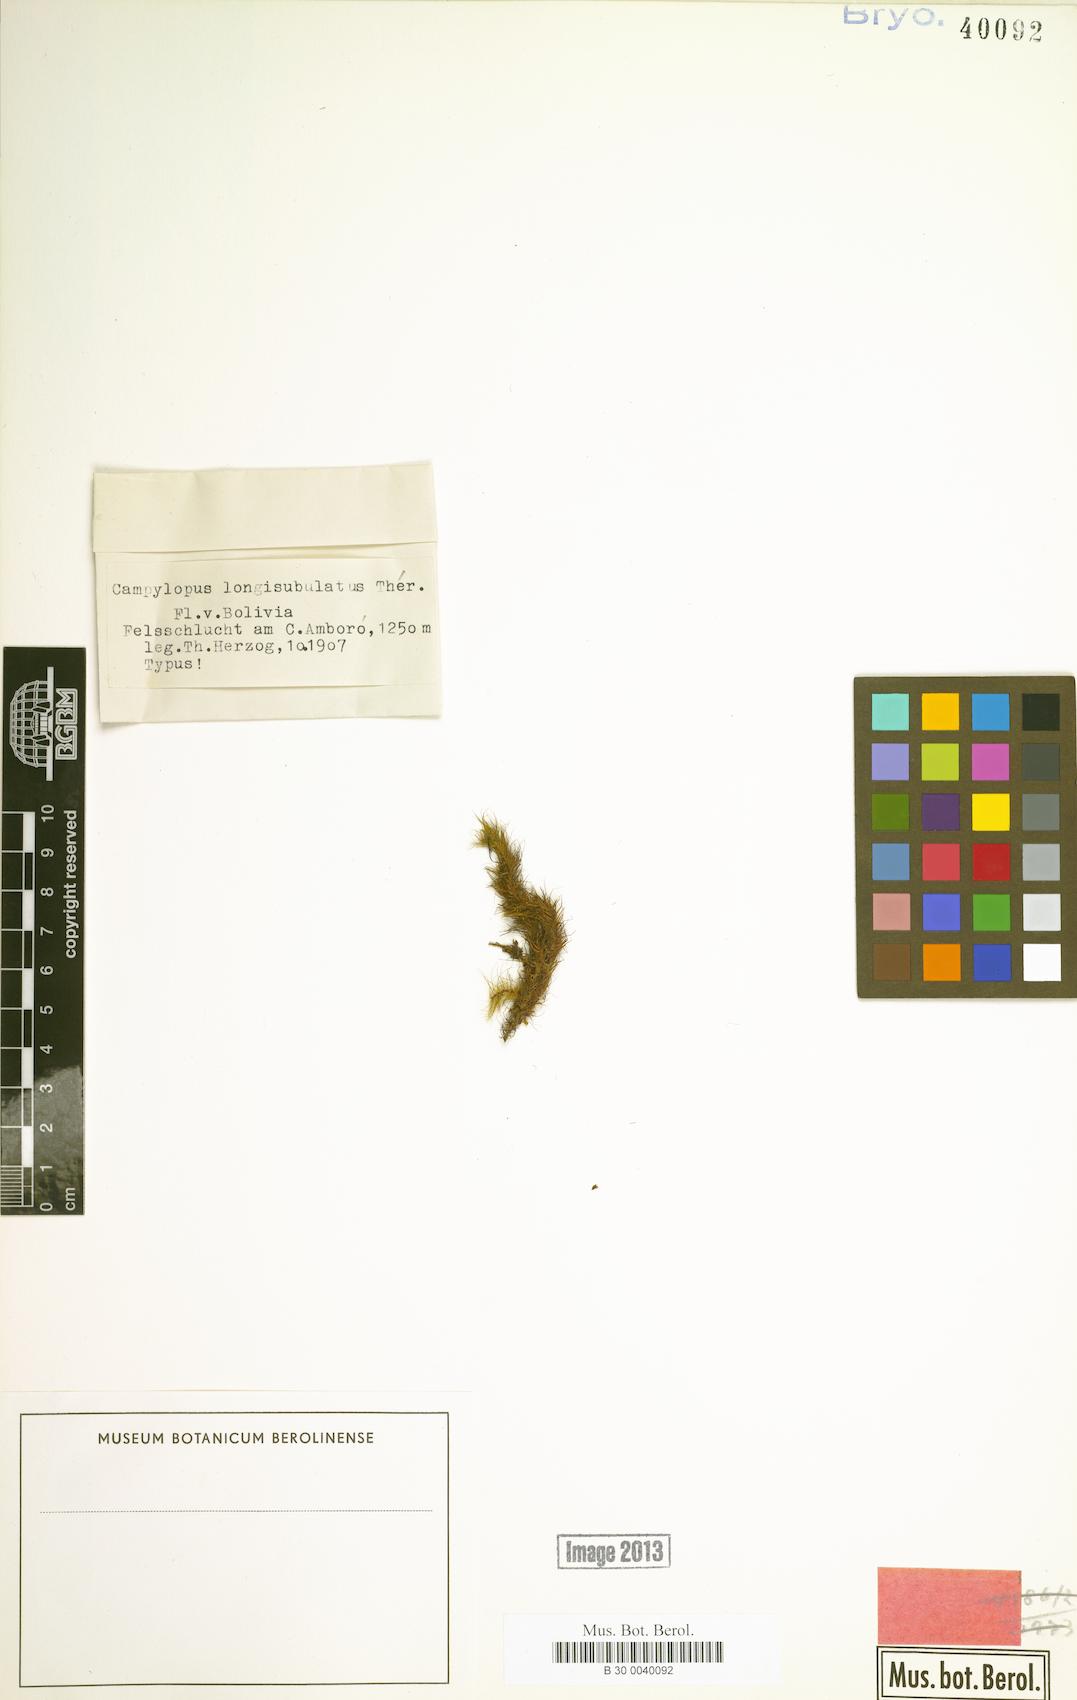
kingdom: Plantae
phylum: Bryophyta
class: Bryopsida
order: Dicranales
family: Leucobryaceae
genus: Campylopus
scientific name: Campylopus anderssonii
